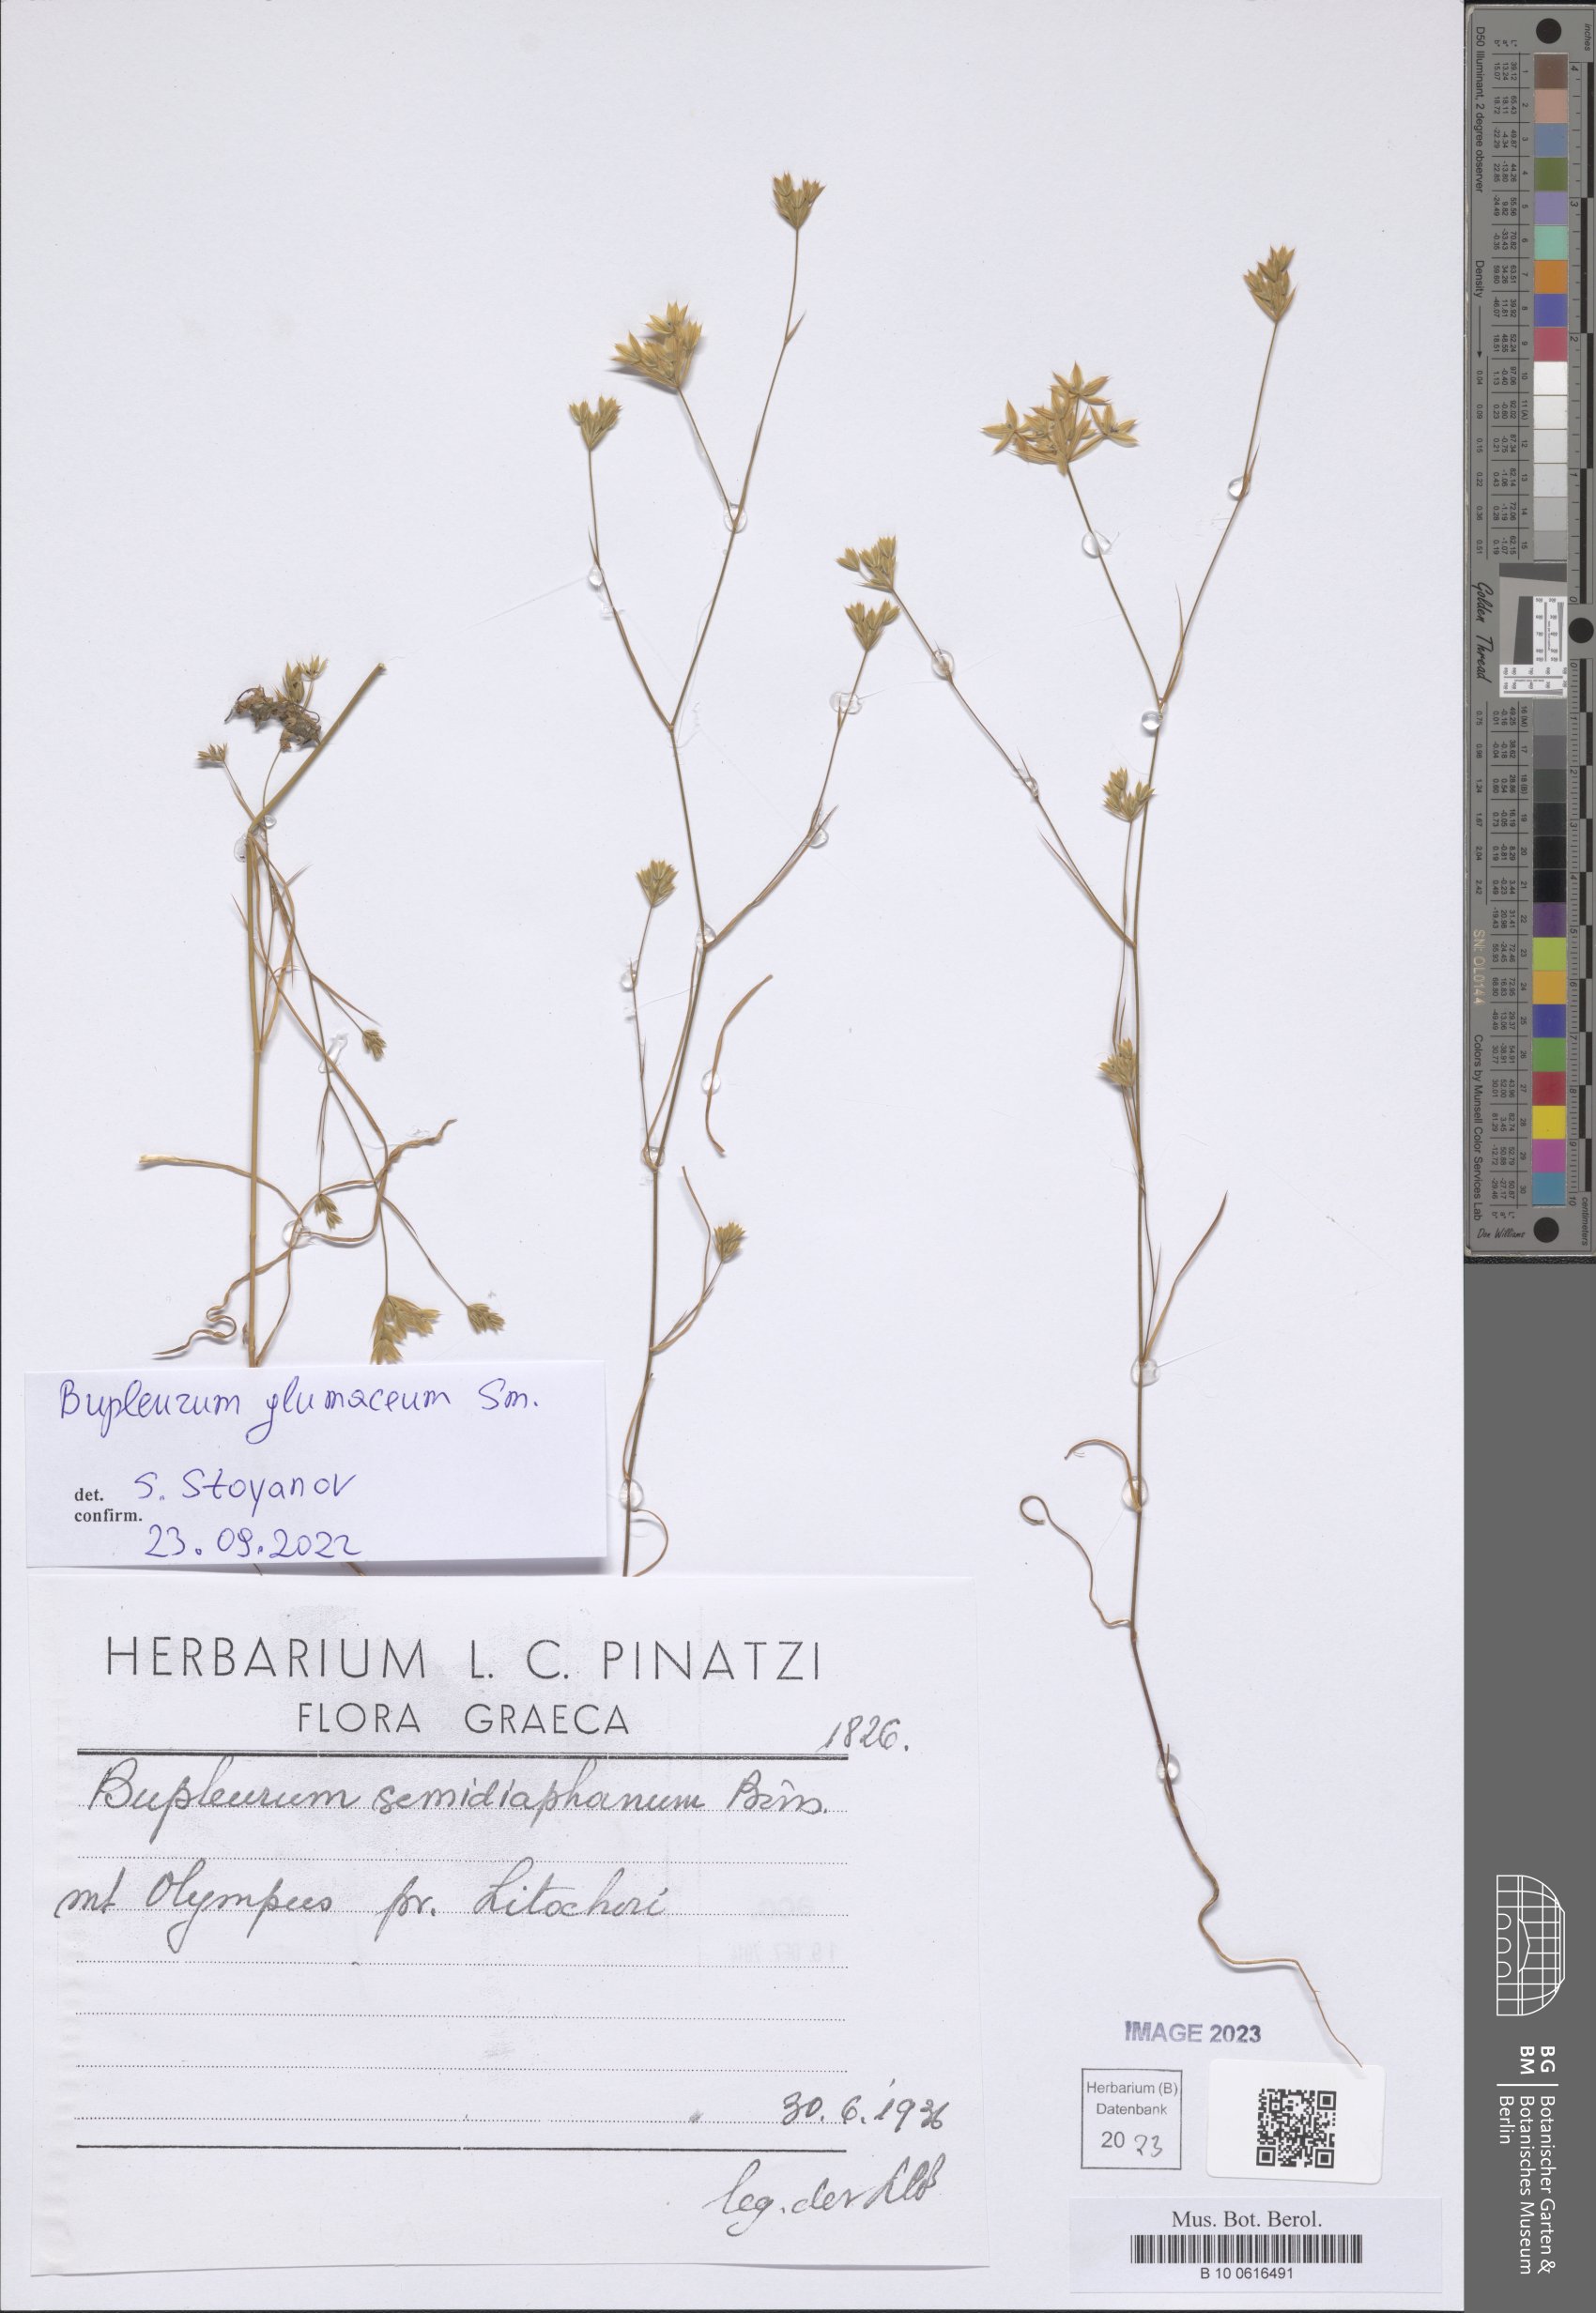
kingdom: Plantae
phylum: Tracheophyta
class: Magnoliopsida
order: Apiales
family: Apiaceae
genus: Bupleurum
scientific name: Bupleurum glumaceum
